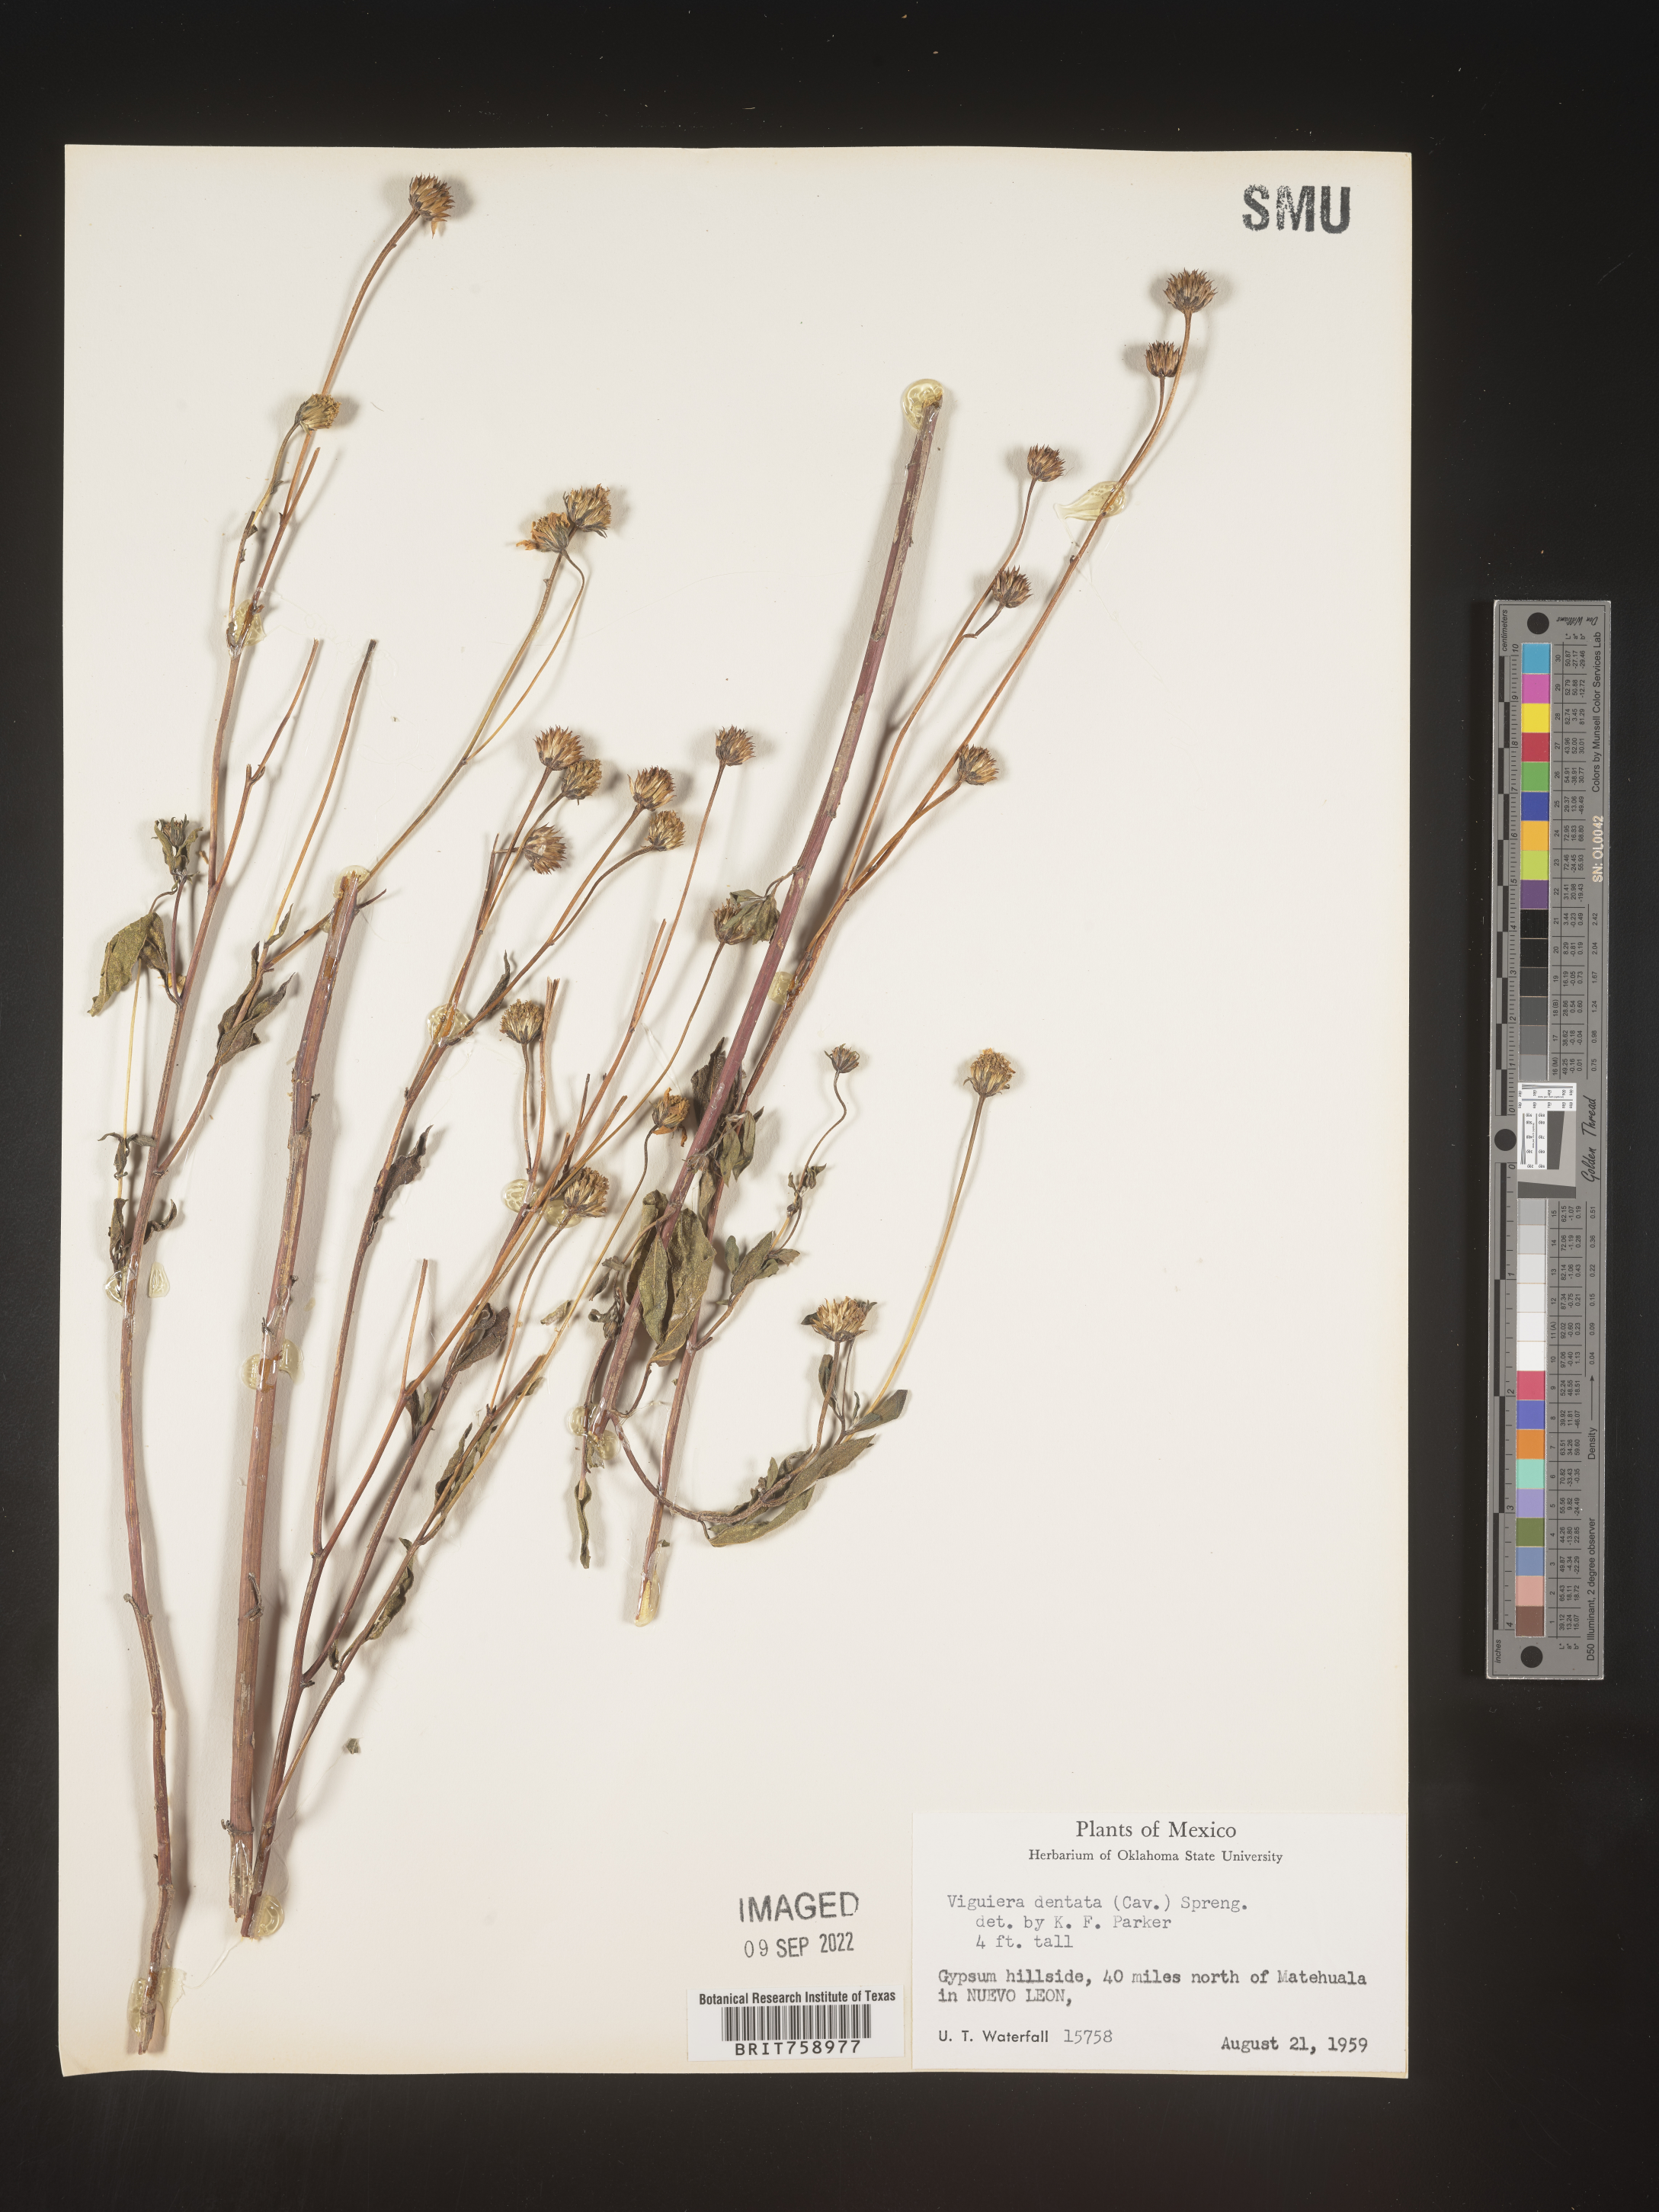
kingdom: Plantae
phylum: Tracheophyta
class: Magnoliopsida
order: Asterales
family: Asteraceae
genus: Viguiera
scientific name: Viguiera
